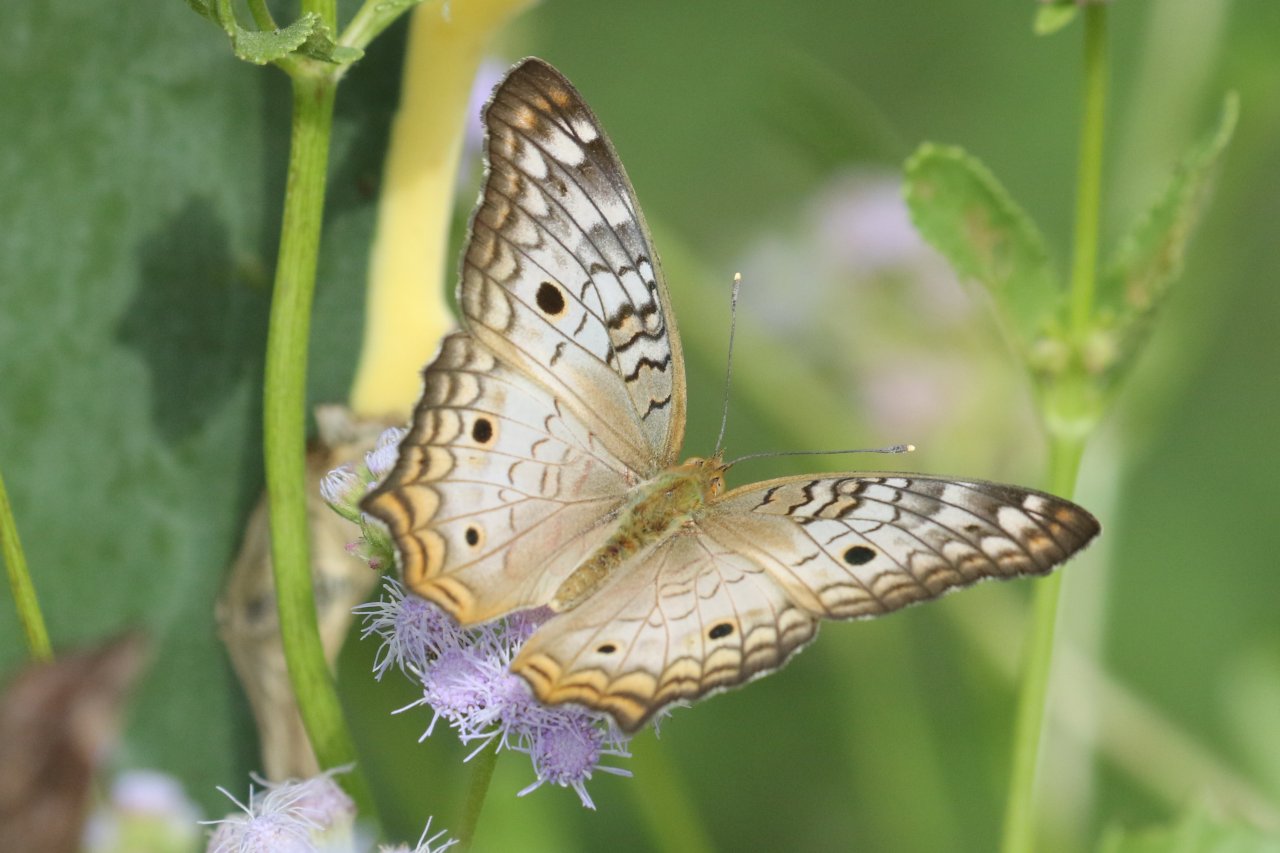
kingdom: Animalia
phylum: Arthropoda
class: Insecta
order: Lepidoptera
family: Nymphalidae
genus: Anartia
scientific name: Anartia jatrophae
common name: White Peacock
